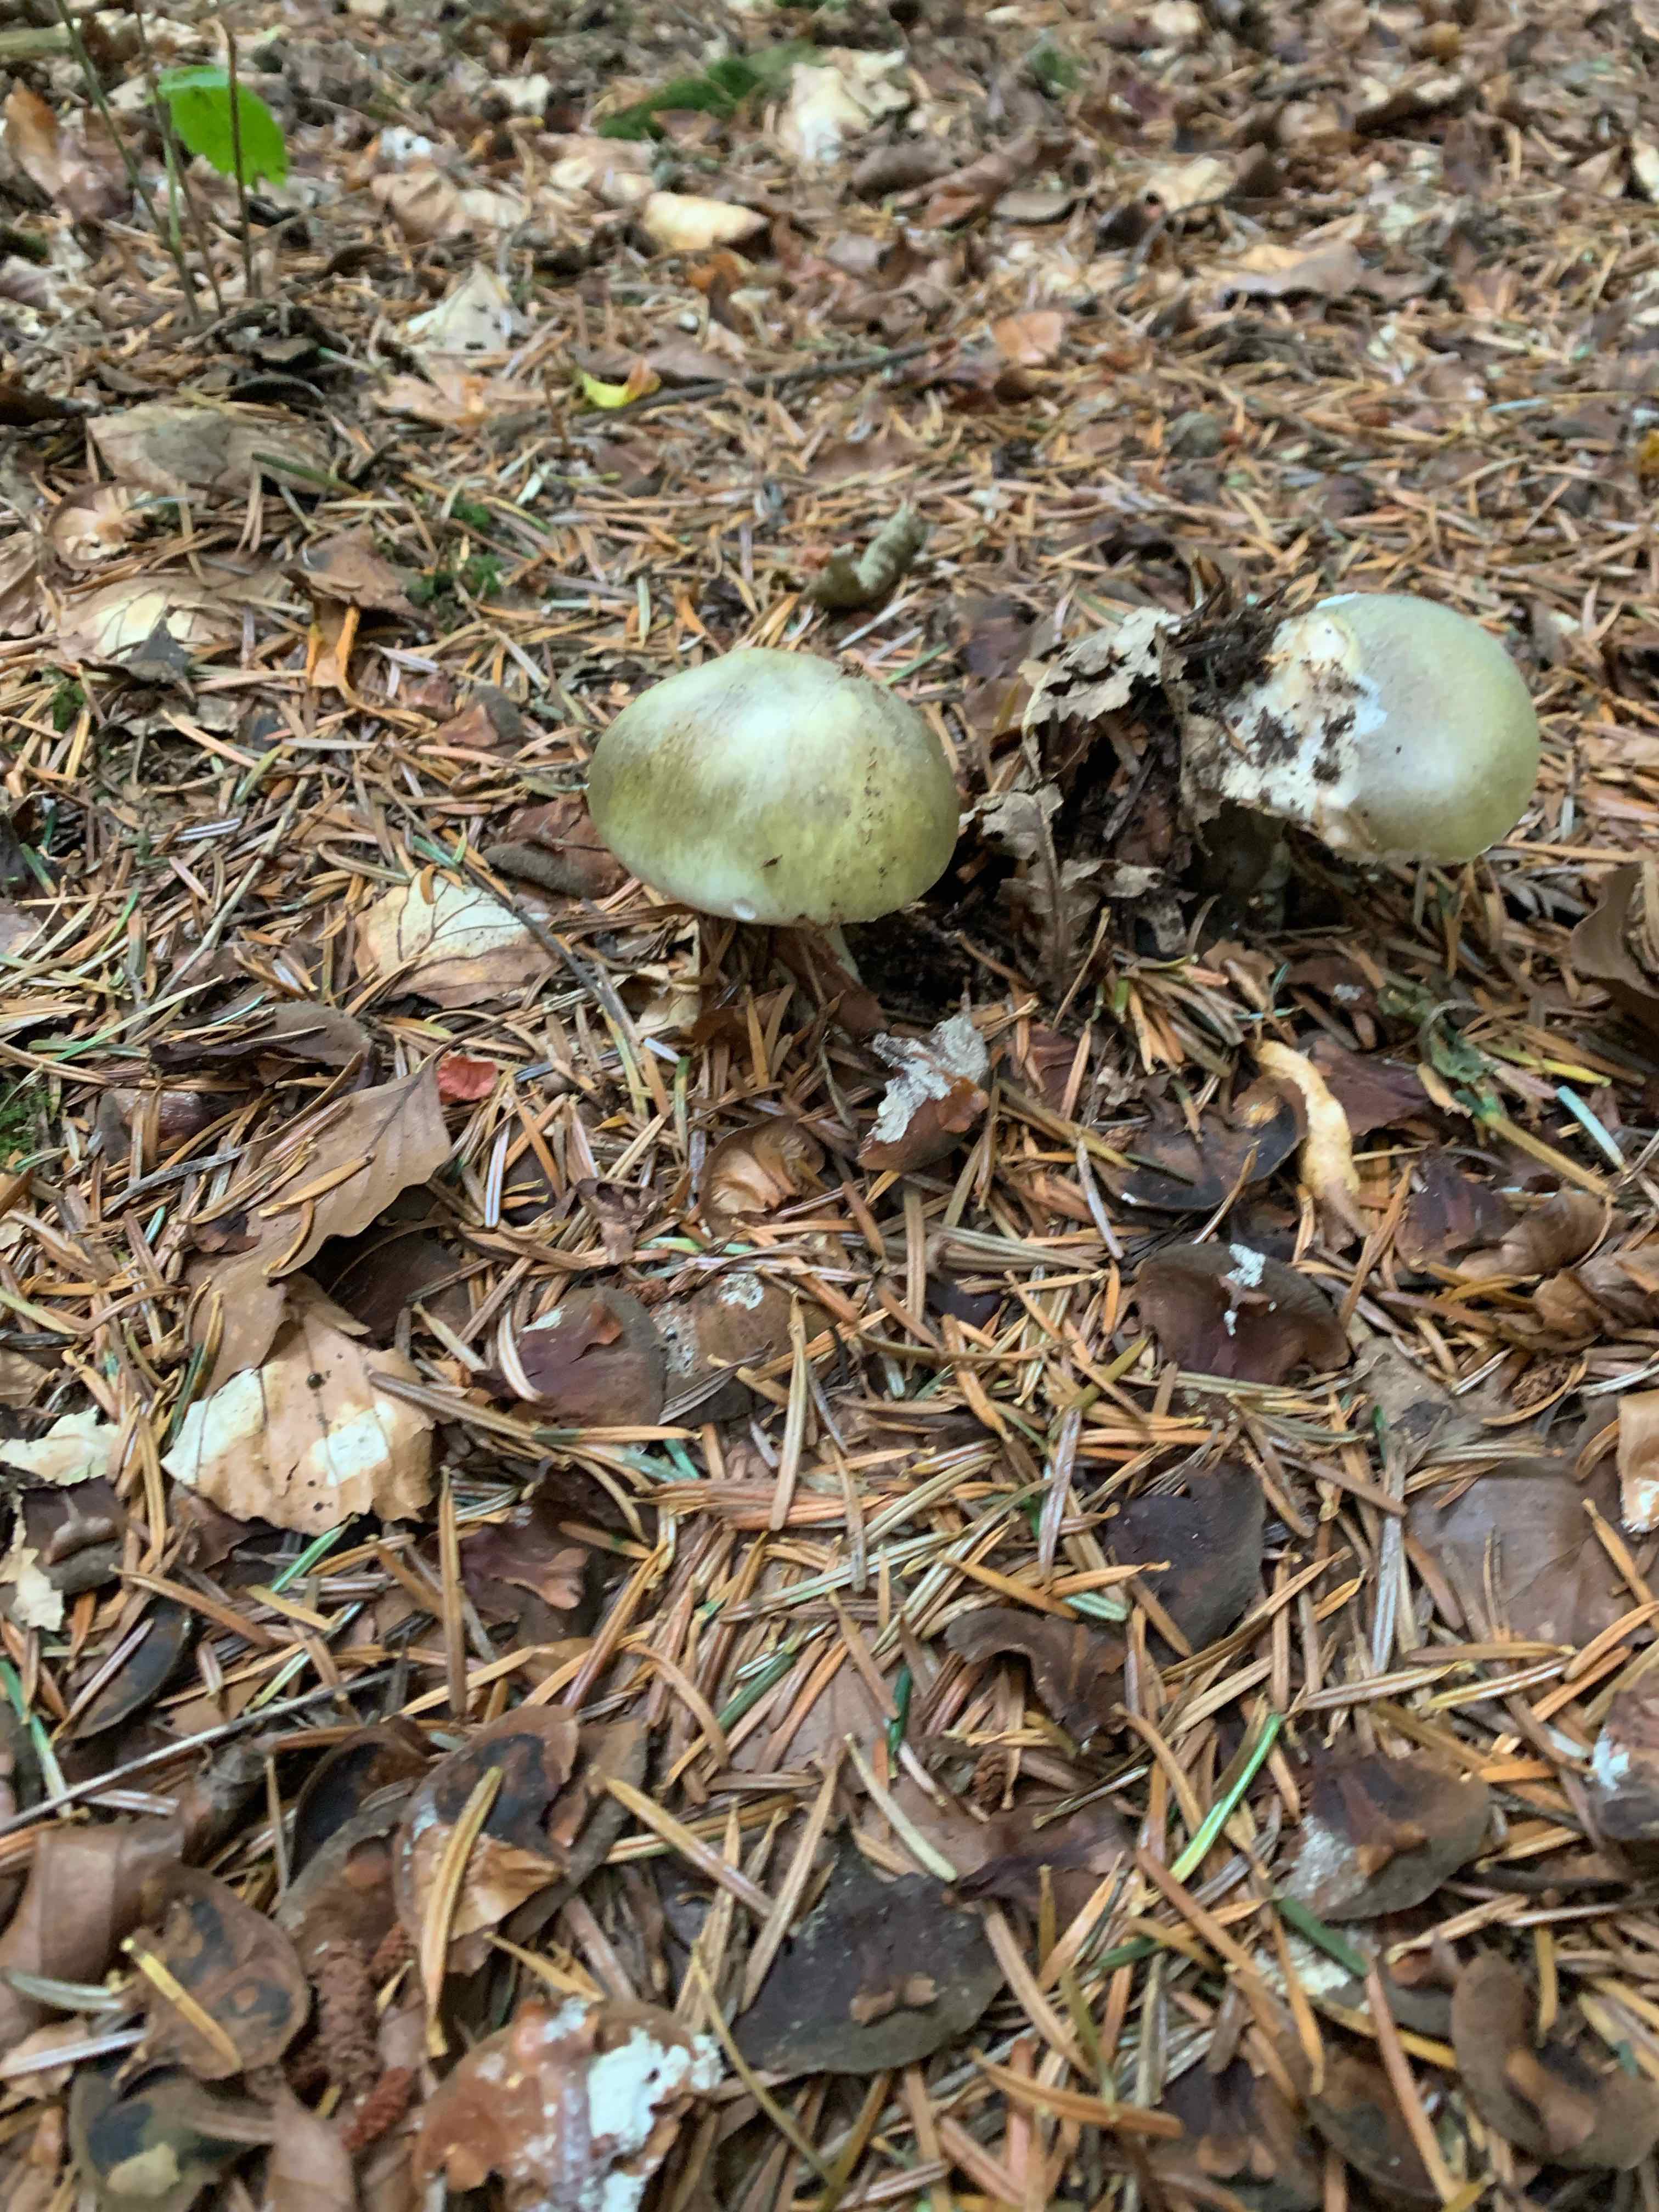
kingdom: Fungi
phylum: Basidiomycota
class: Agaricomycetes
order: Agaricales
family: Amanitaceae
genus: Amanita
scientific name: Amanita phalloides
